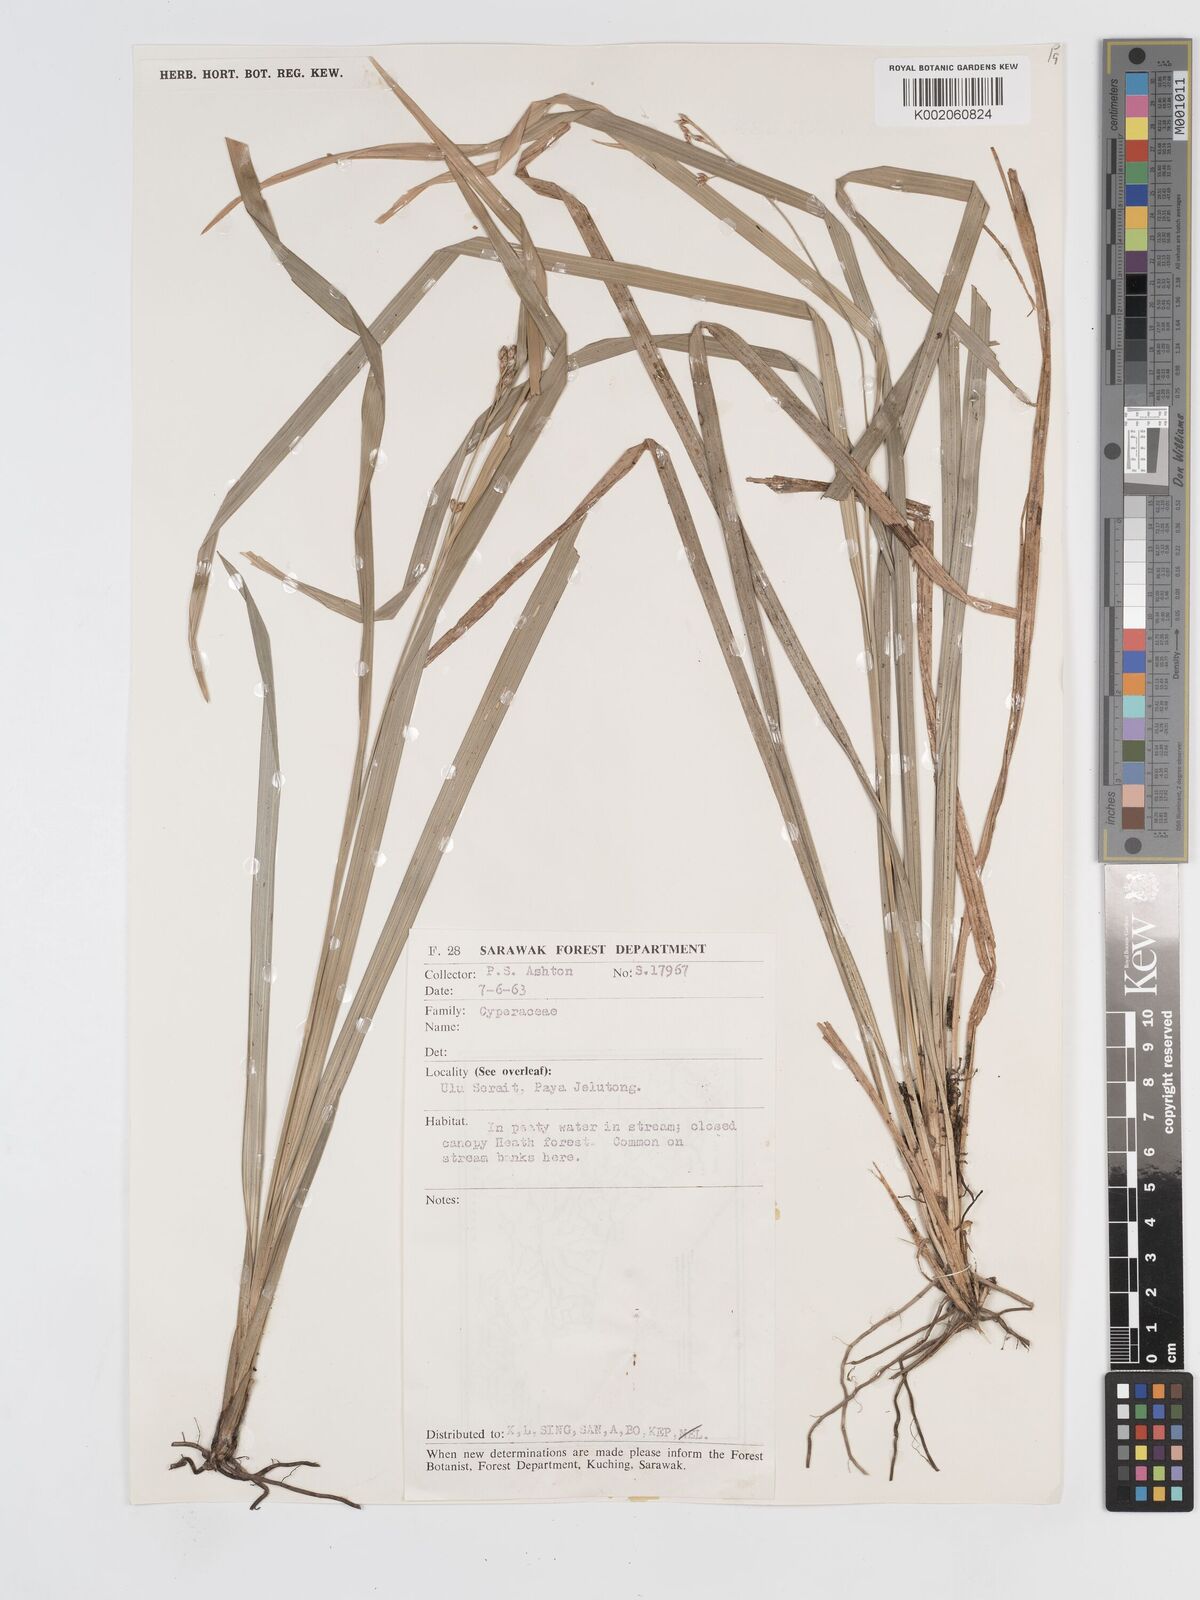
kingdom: Plantae
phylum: Tracheophyta
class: Liliopsida
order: Poales
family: Cyperaceae
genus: Hypolytrum
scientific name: Hypolytrum
